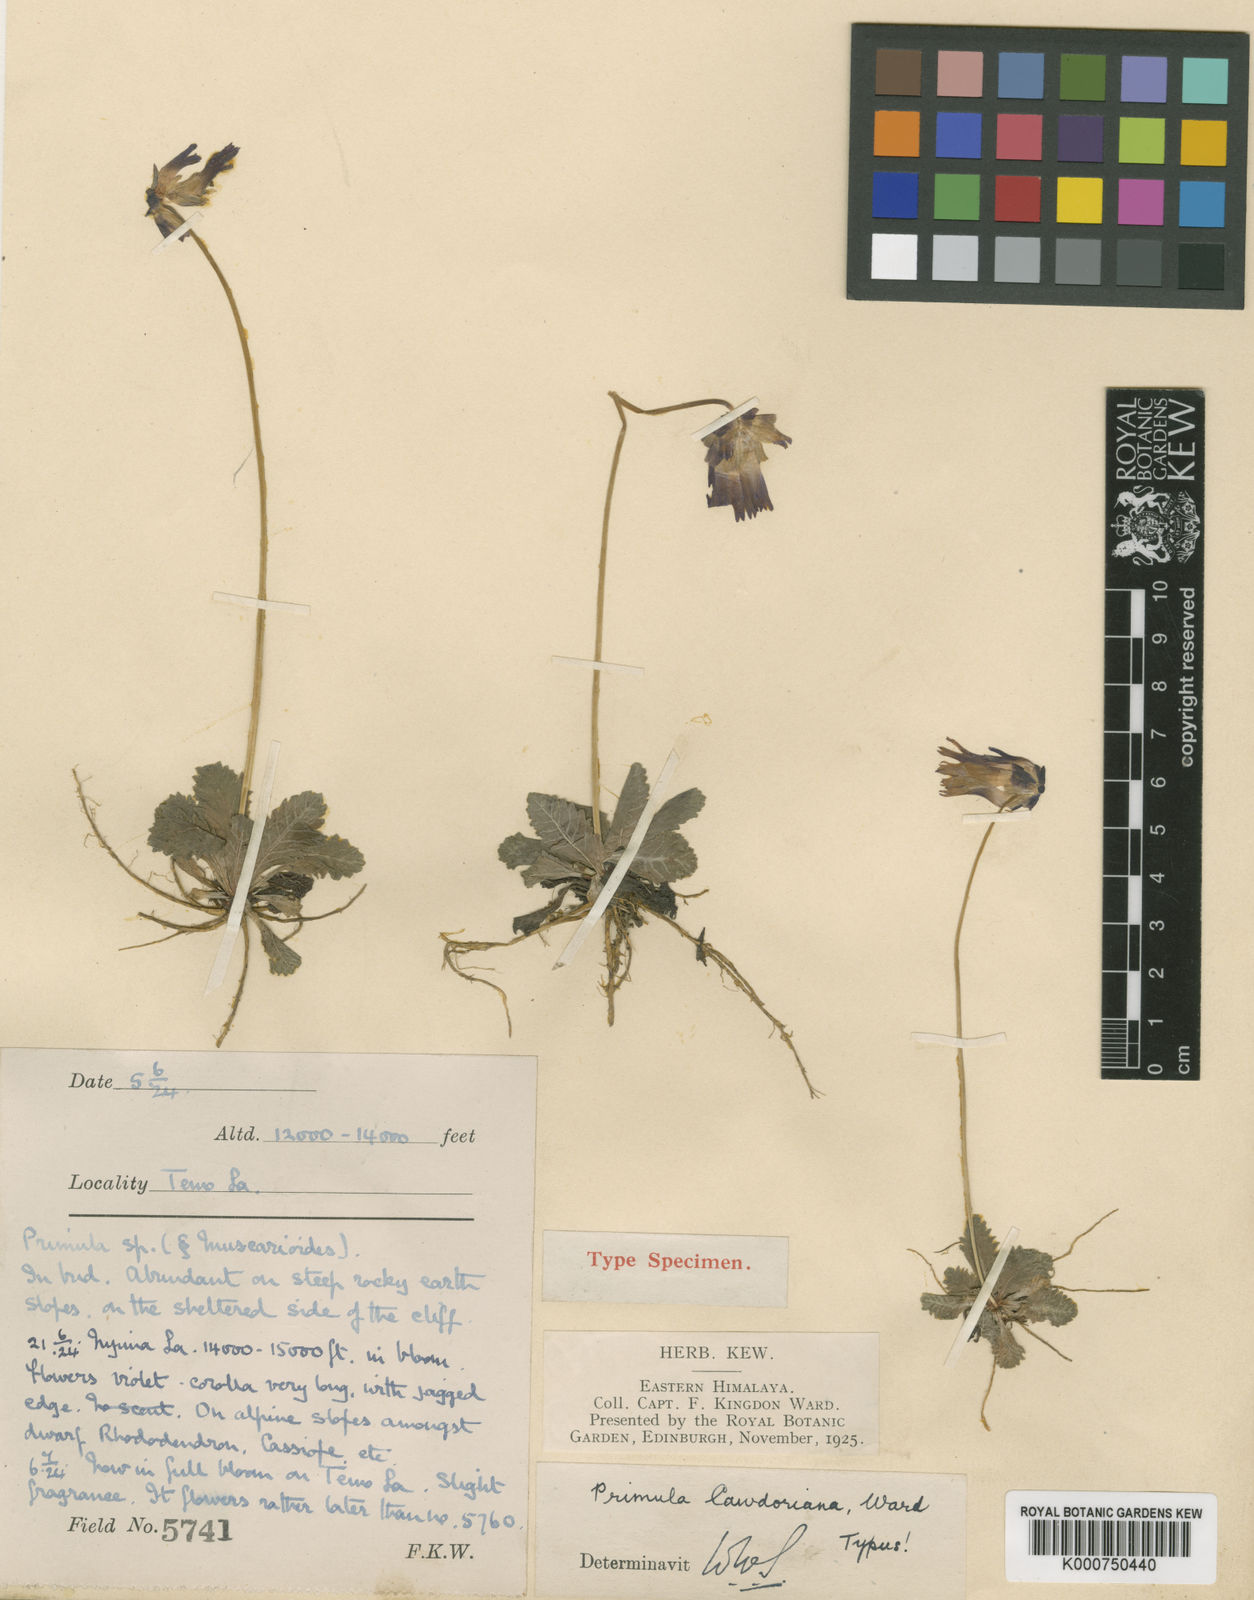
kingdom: Plantae
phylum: Tracheophyta
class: Magnoliopsida
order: Ericales
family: Primulaceae
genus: Primula
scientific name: Primula cawdoriana
